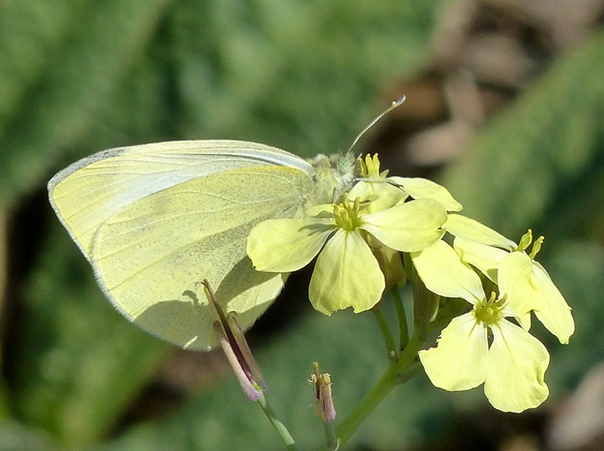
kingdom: Animalia
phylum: Arthropoda
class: Insecta
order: Lepidoptera
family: Pieridae
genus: Pieris
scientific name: Pieris rapae
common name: Cabbage White
